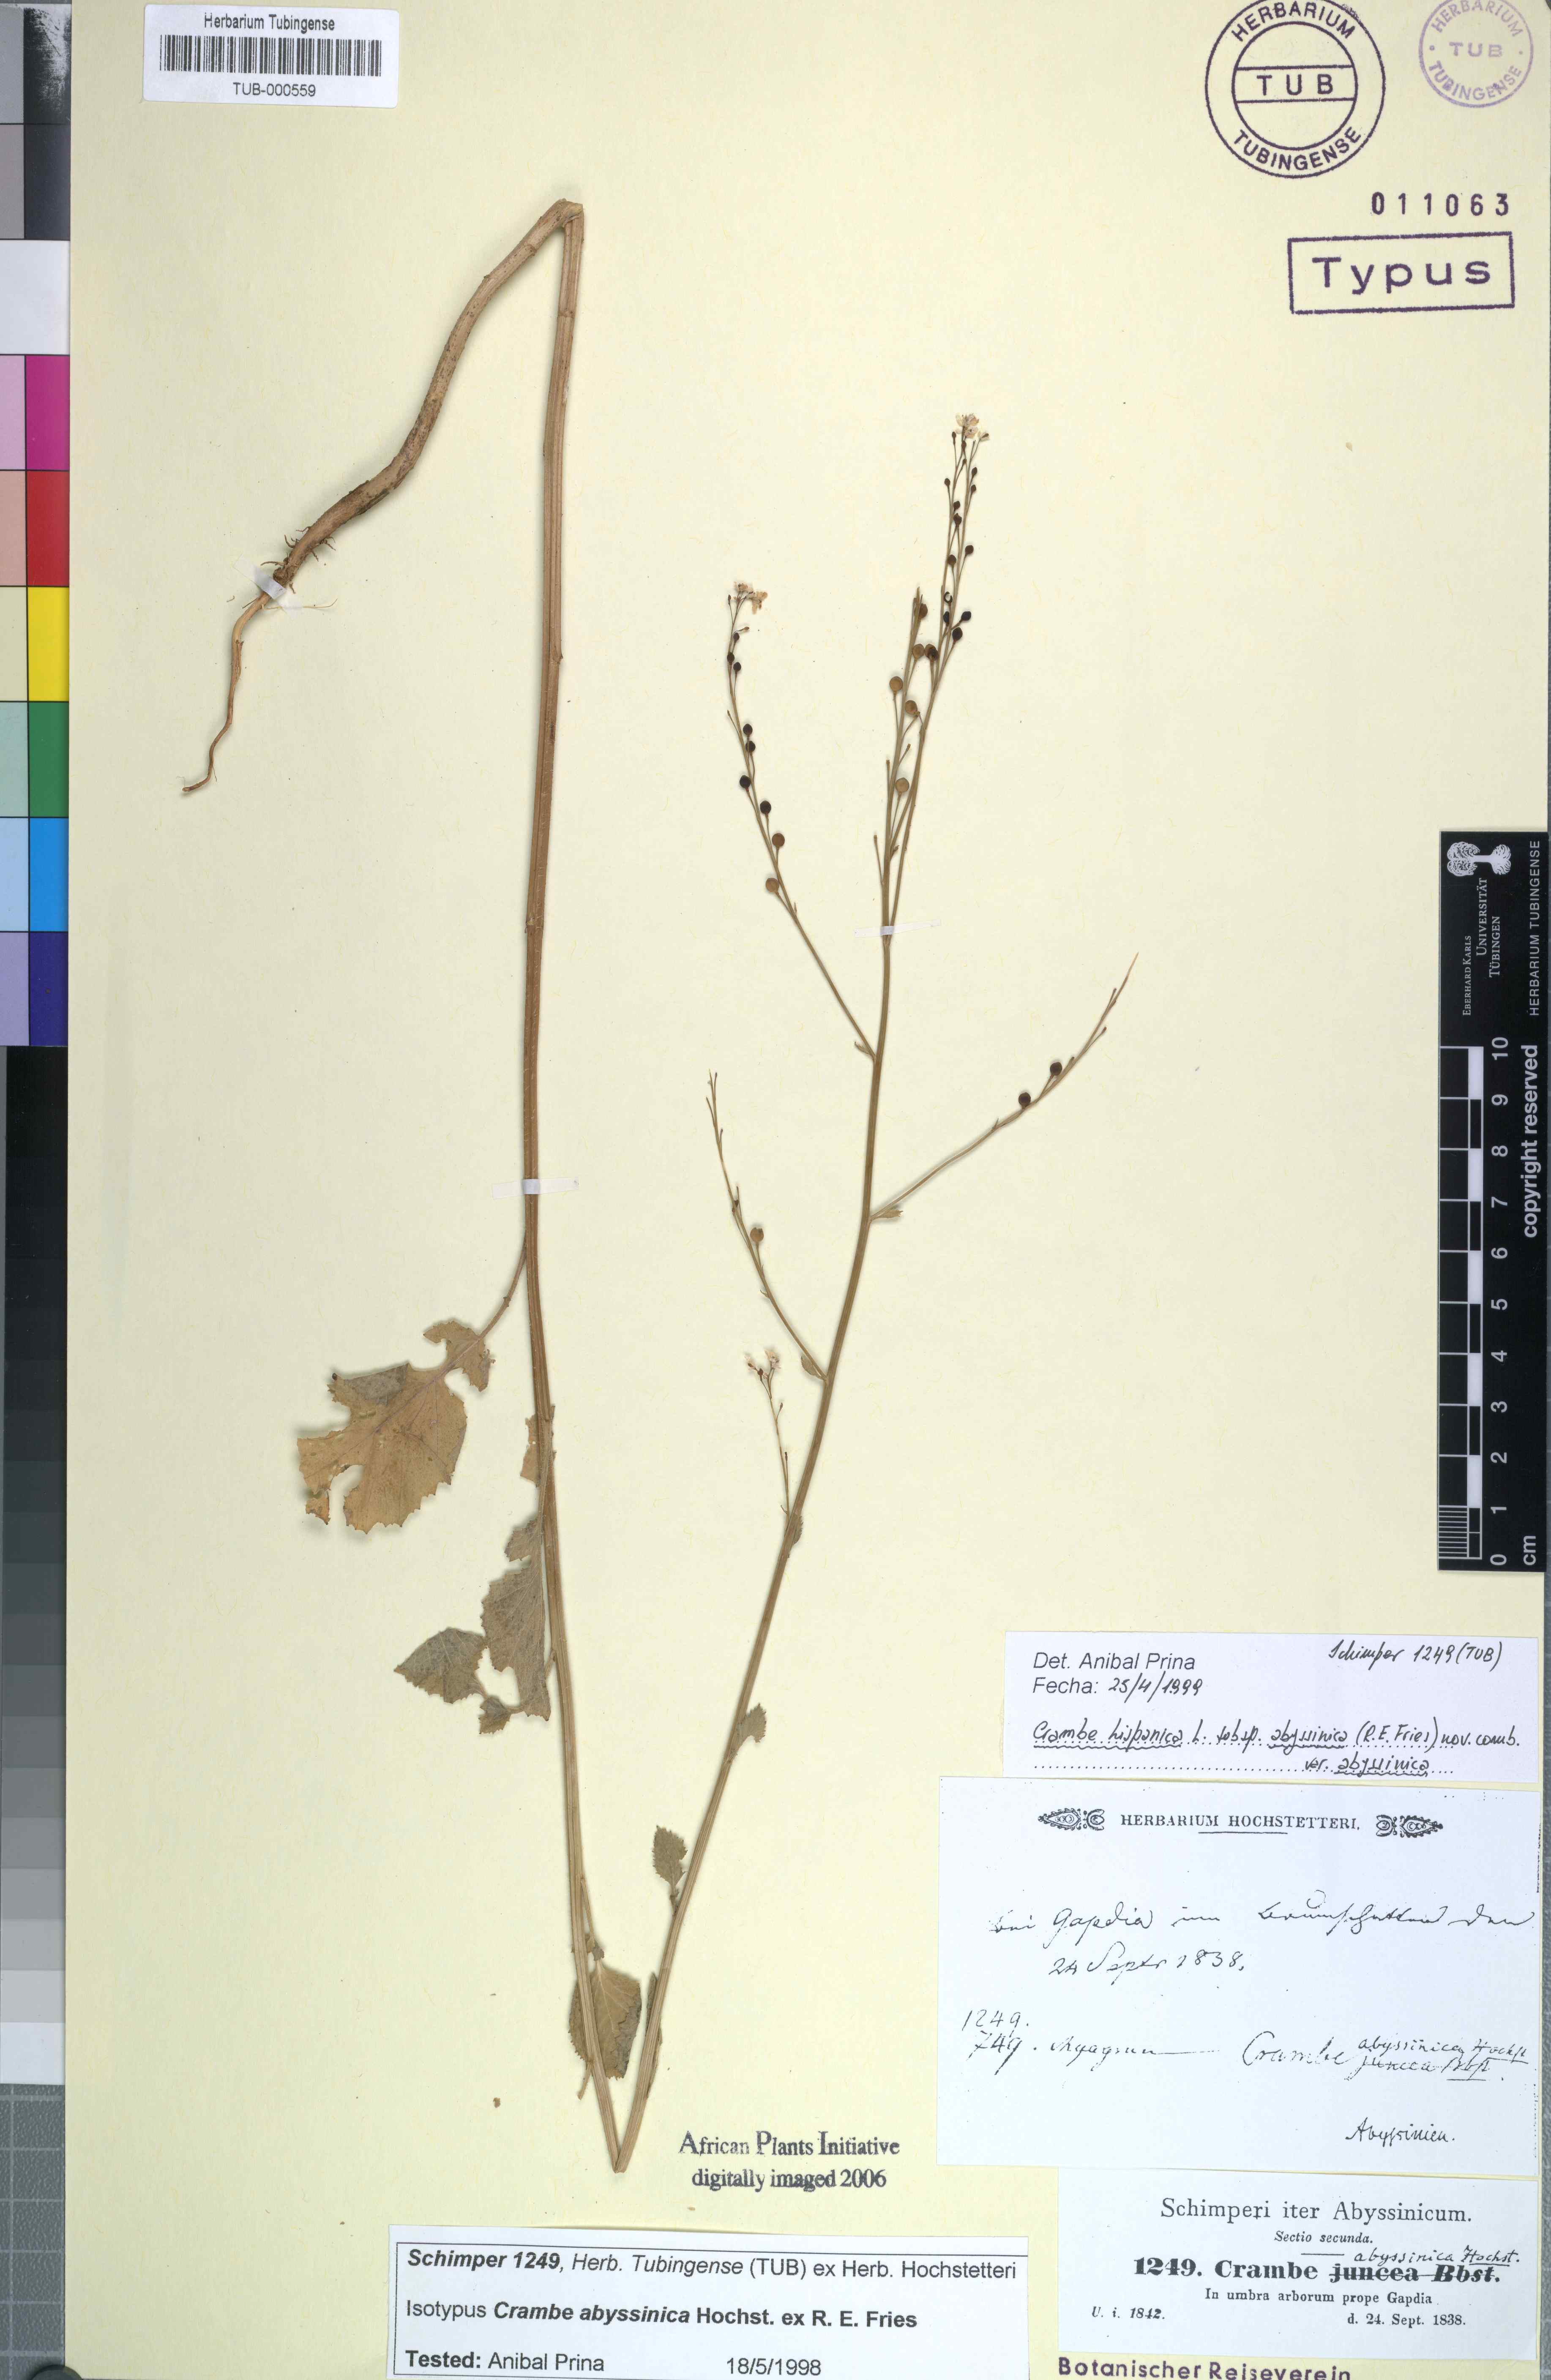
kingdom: Plantae
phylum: Tracheophyta
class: Magnoliopsida
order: Brassicales
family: Brassicaceae
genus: Crambe
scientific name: Crambe hispanica
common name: Abyssinian mustard
